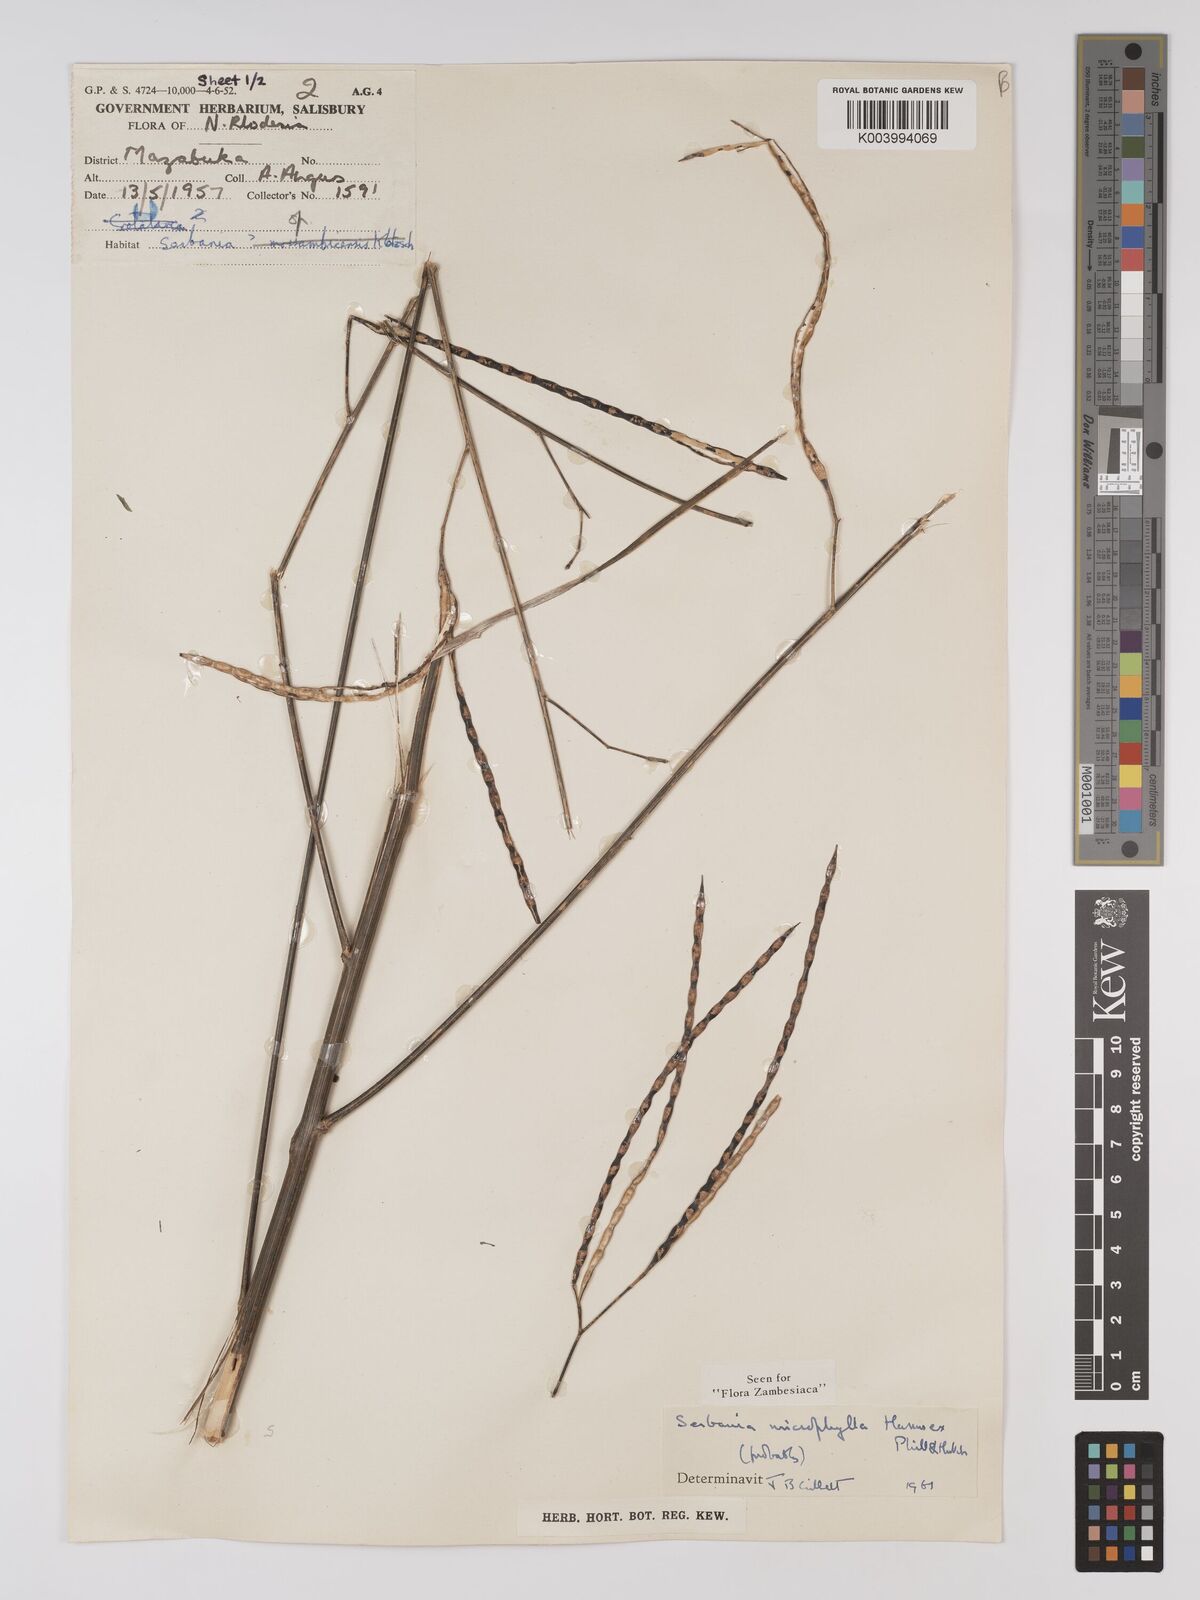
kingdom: Plantae
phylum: Tracheophyta
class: Magnoliopsida
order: Fabales
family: Fabaceae
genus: Sesbania
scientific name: Sesbania microphylla
